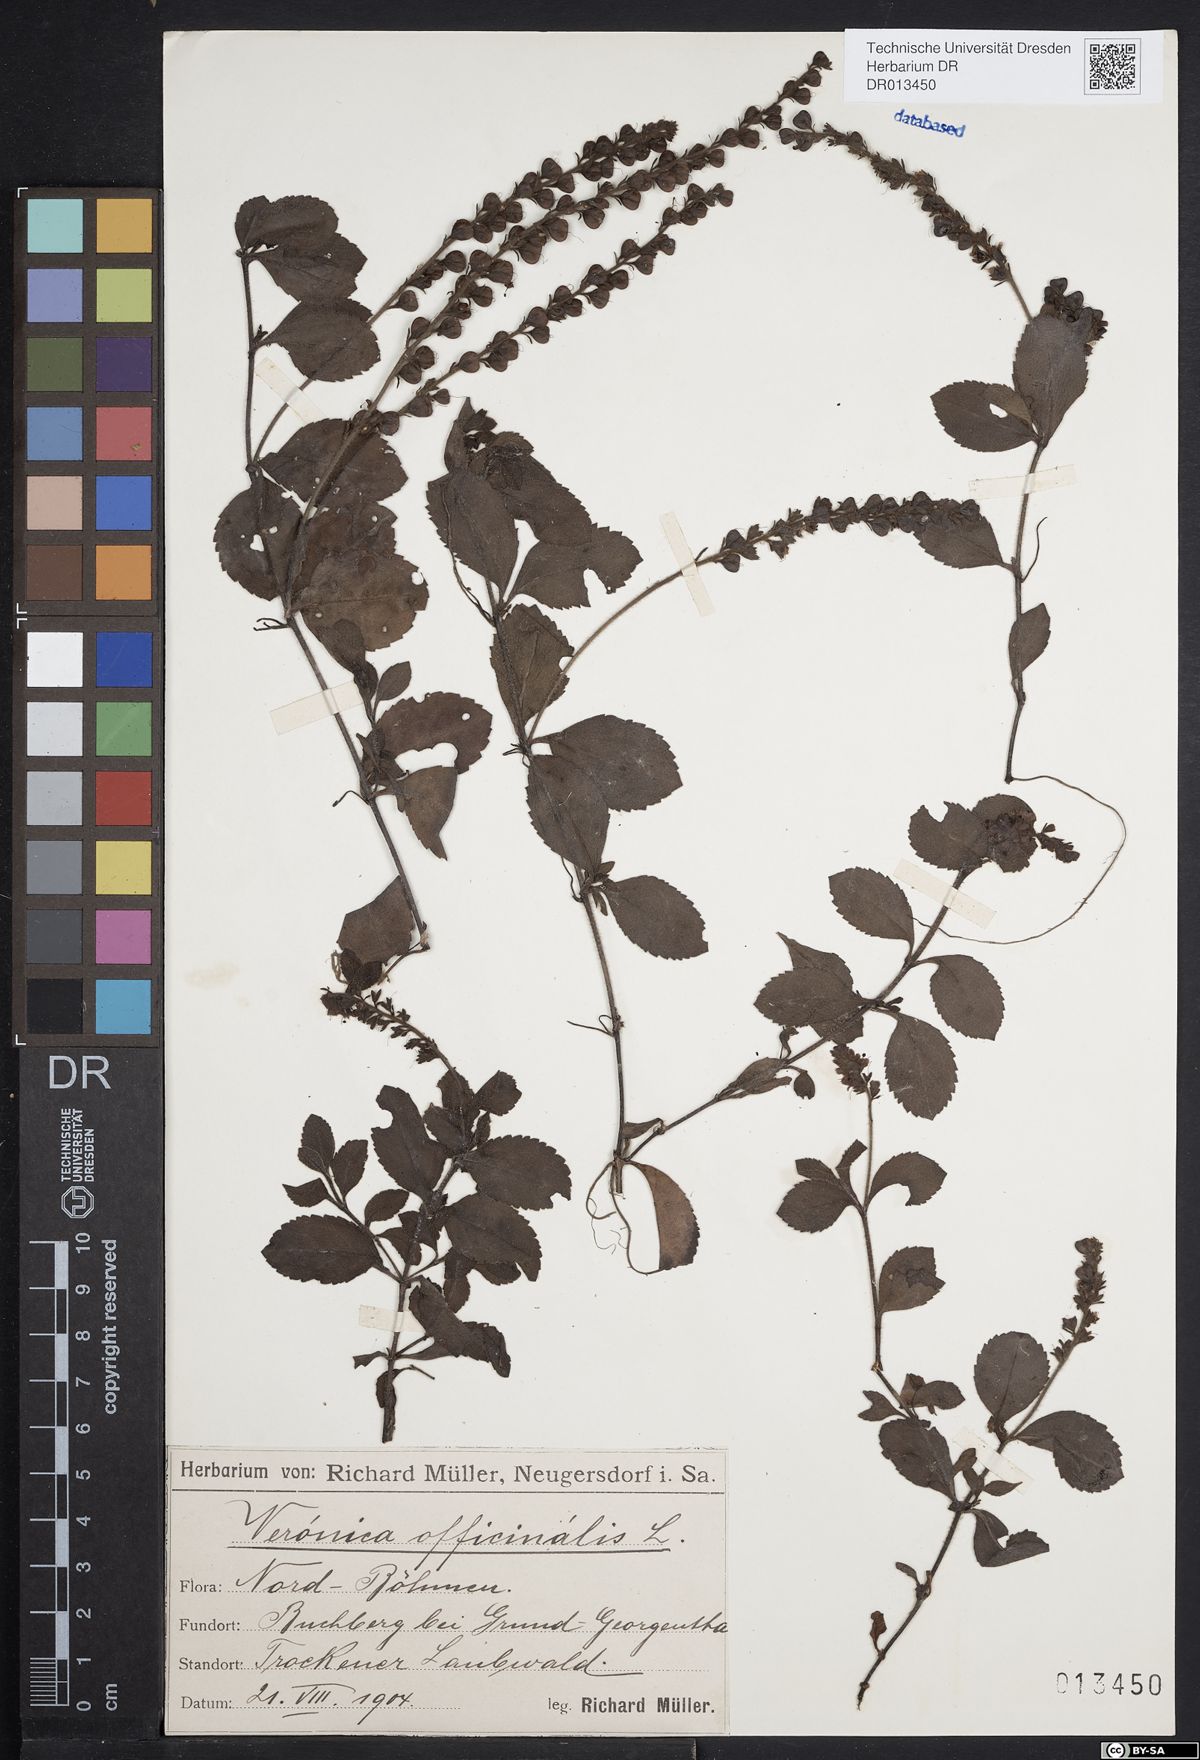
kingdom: Plantae
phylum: Tracheophyta
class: Magnoliopsida
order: Lamiales
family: Plantaginaceae
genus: Veronica
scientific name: Veronica officinalis
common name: Common speedwell
